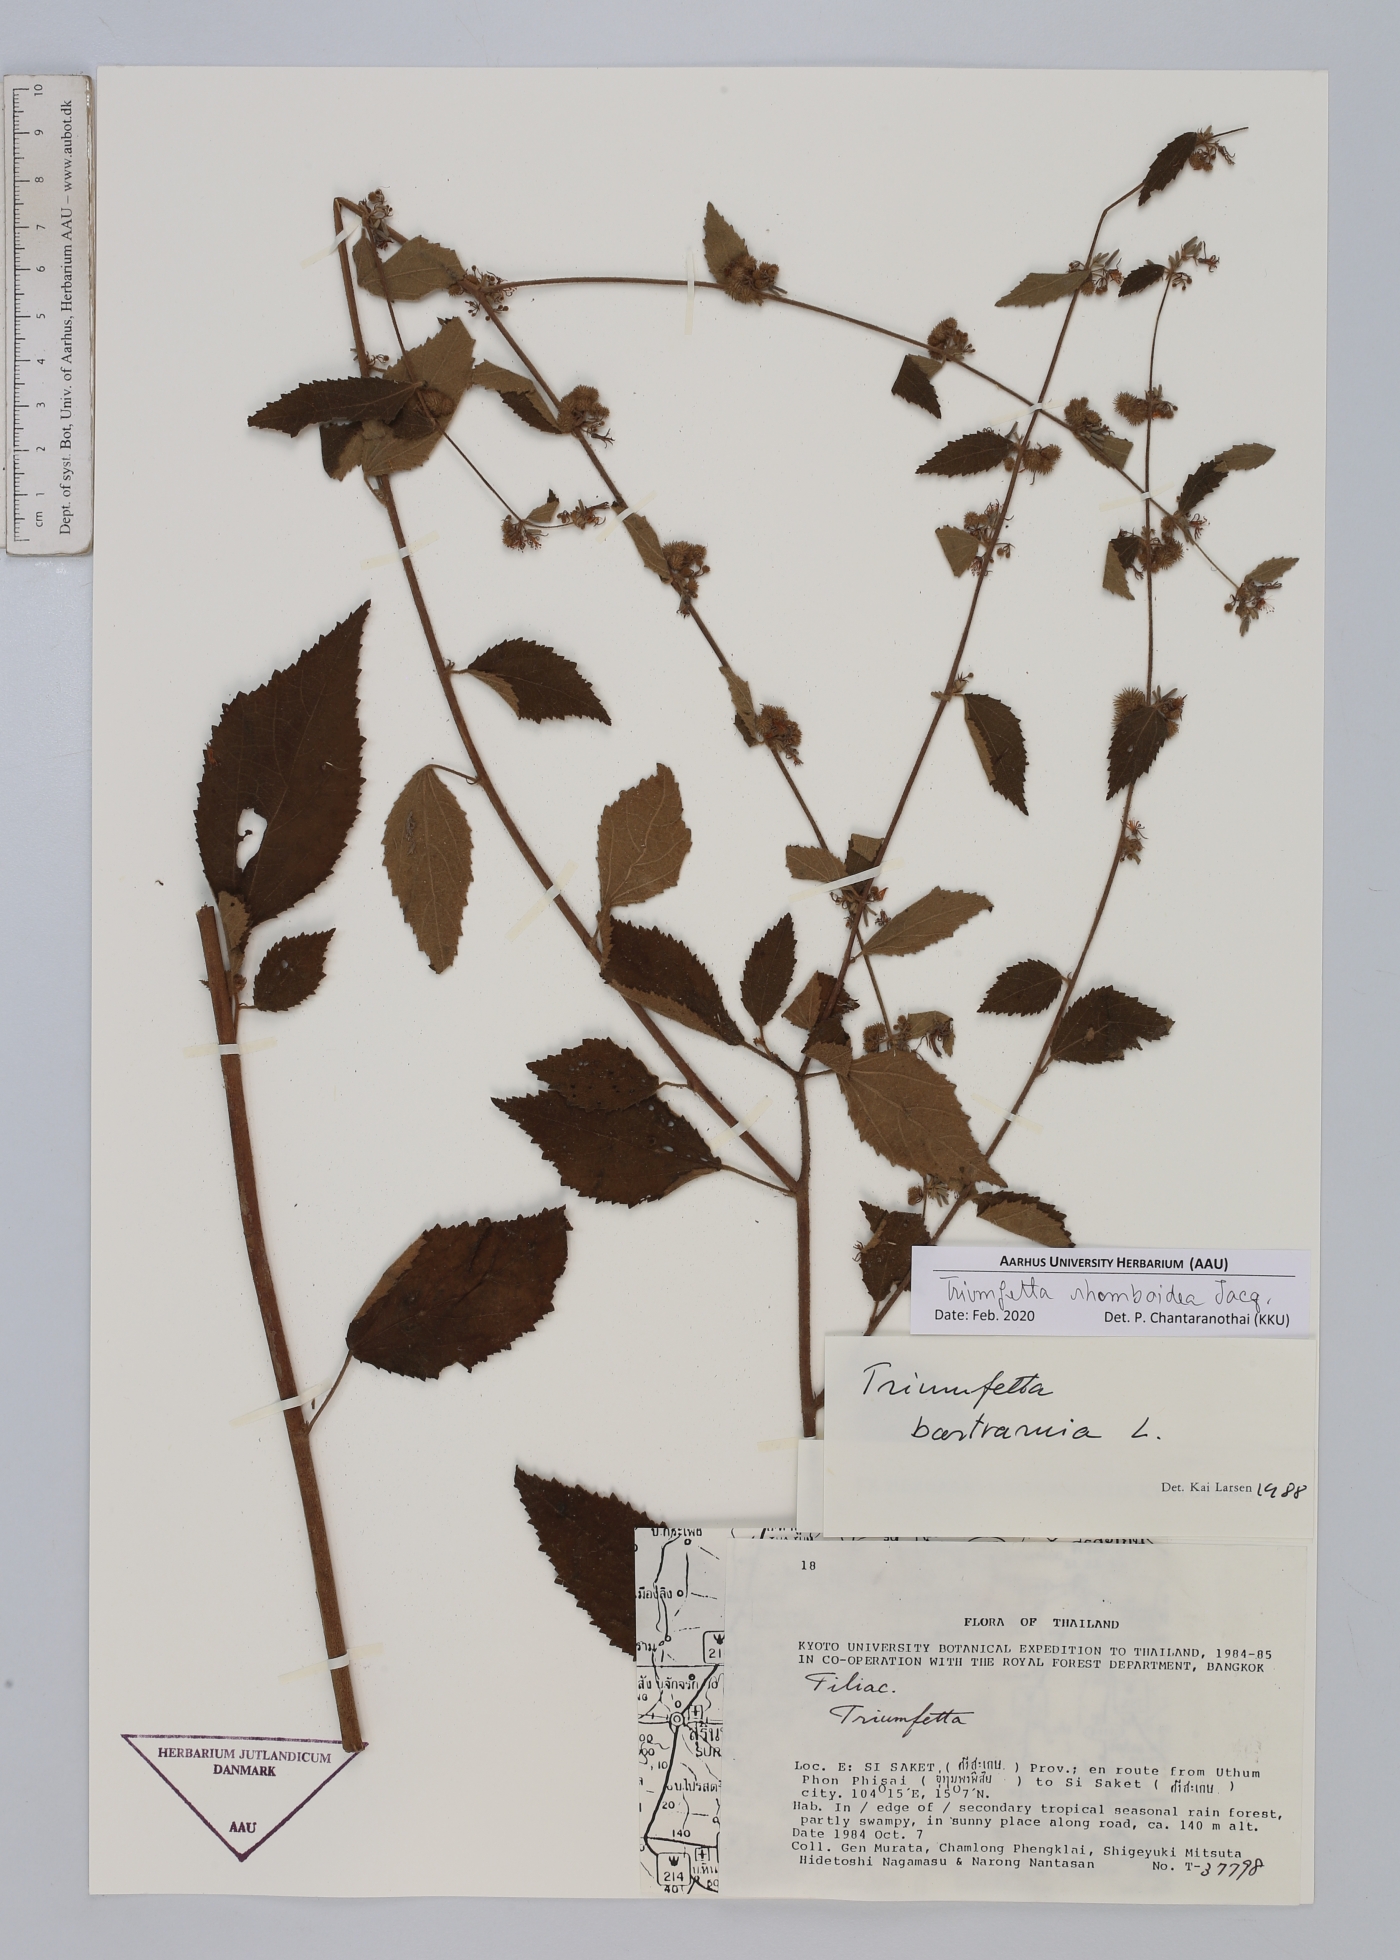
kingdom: Plantae
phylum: Tracheophyta
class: Magnoliopsida
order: Malvales
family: Malvaceae
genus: Triumfetta
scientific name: Triumfetta rhomboidea
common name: Diamond burbark
